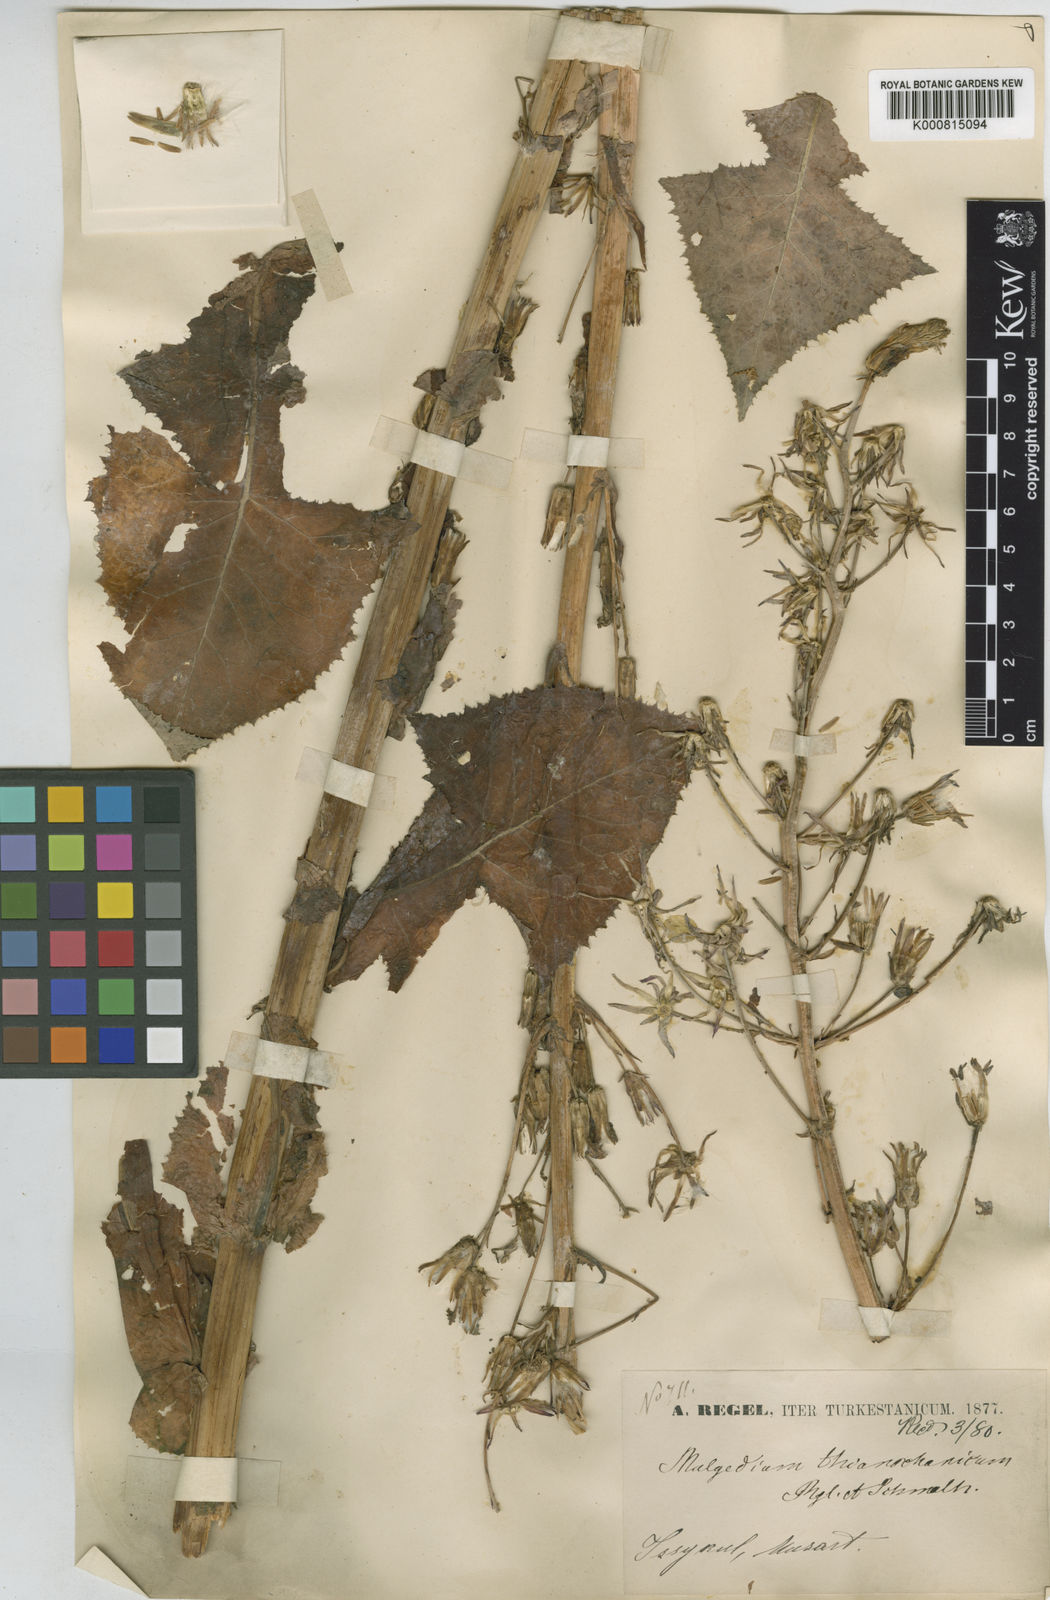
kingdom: Plantae
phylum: Tracheophyta
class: Magnoliopsida
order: Asterales
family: Asteraceae
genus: Cicerbita
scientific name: Cicerbita thianschanica
